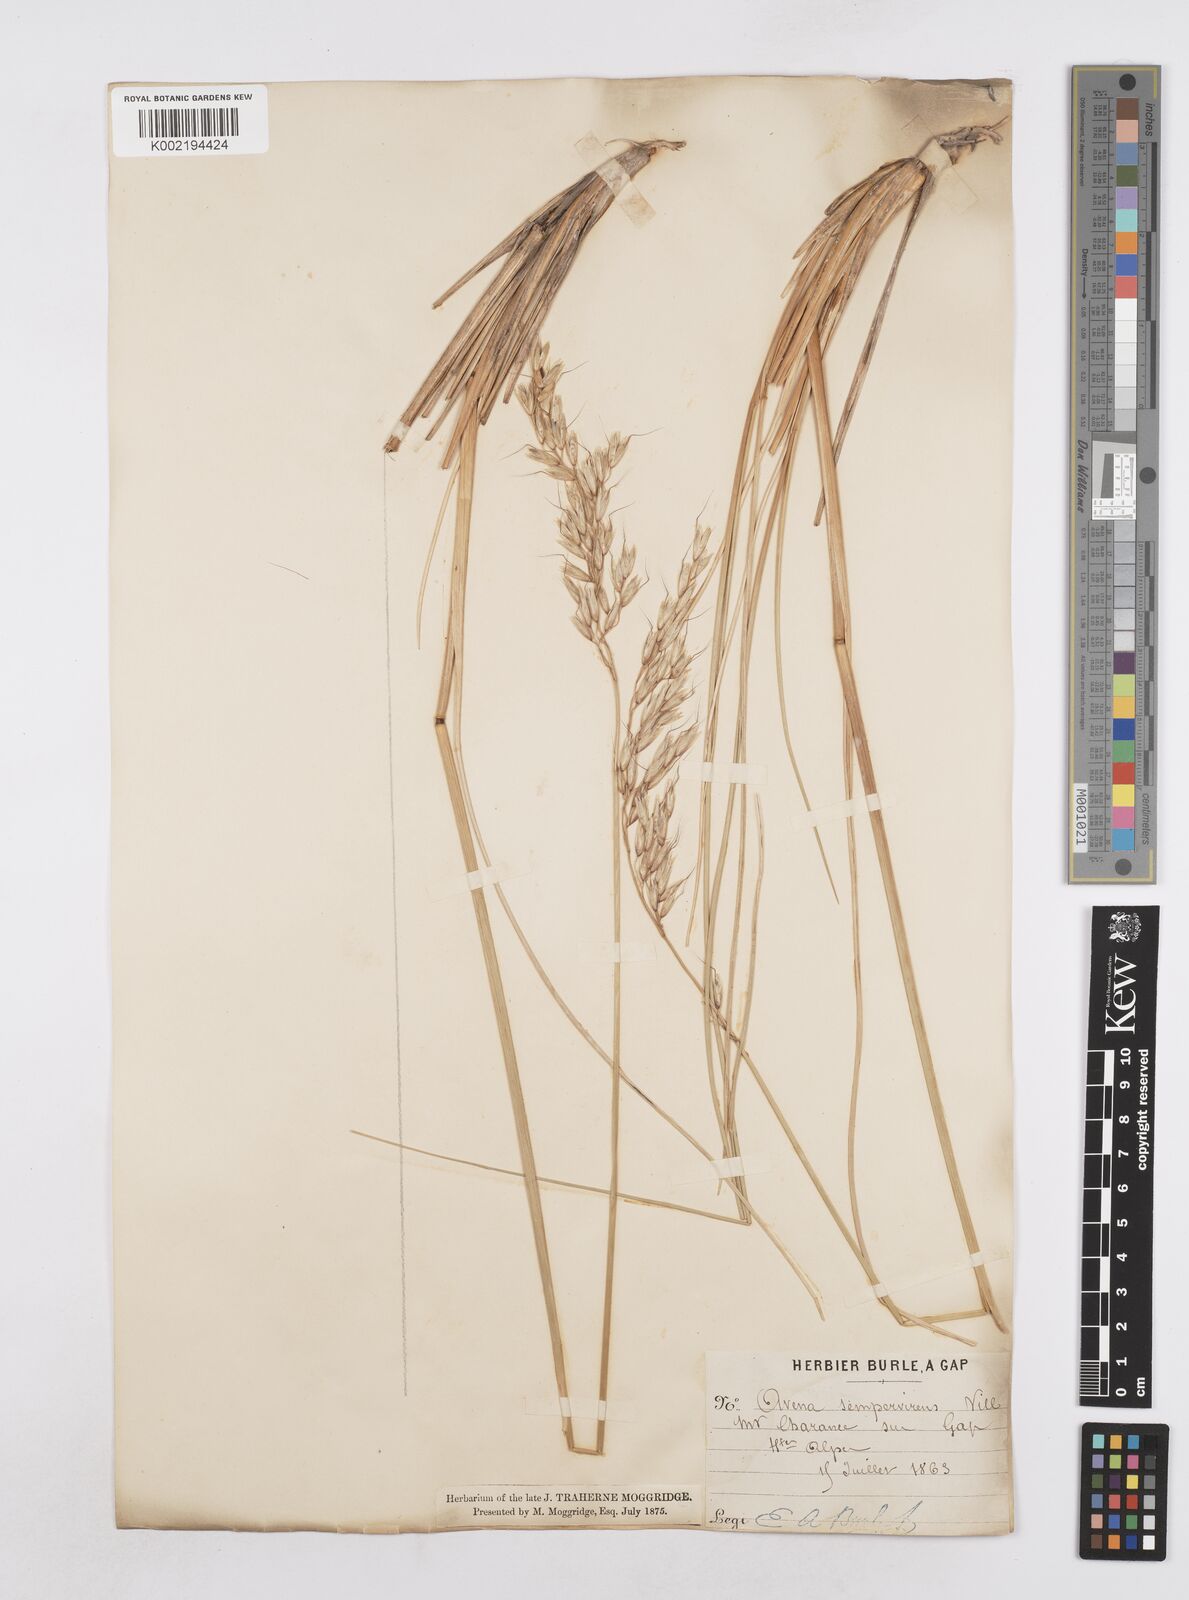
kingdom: Plantae
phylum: Tracheophyta
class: Liliopsida
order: Poales
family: Poaceae
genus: Helictotrichon
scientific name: Helictotrichon sempervirens
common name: Blue oat-grass
